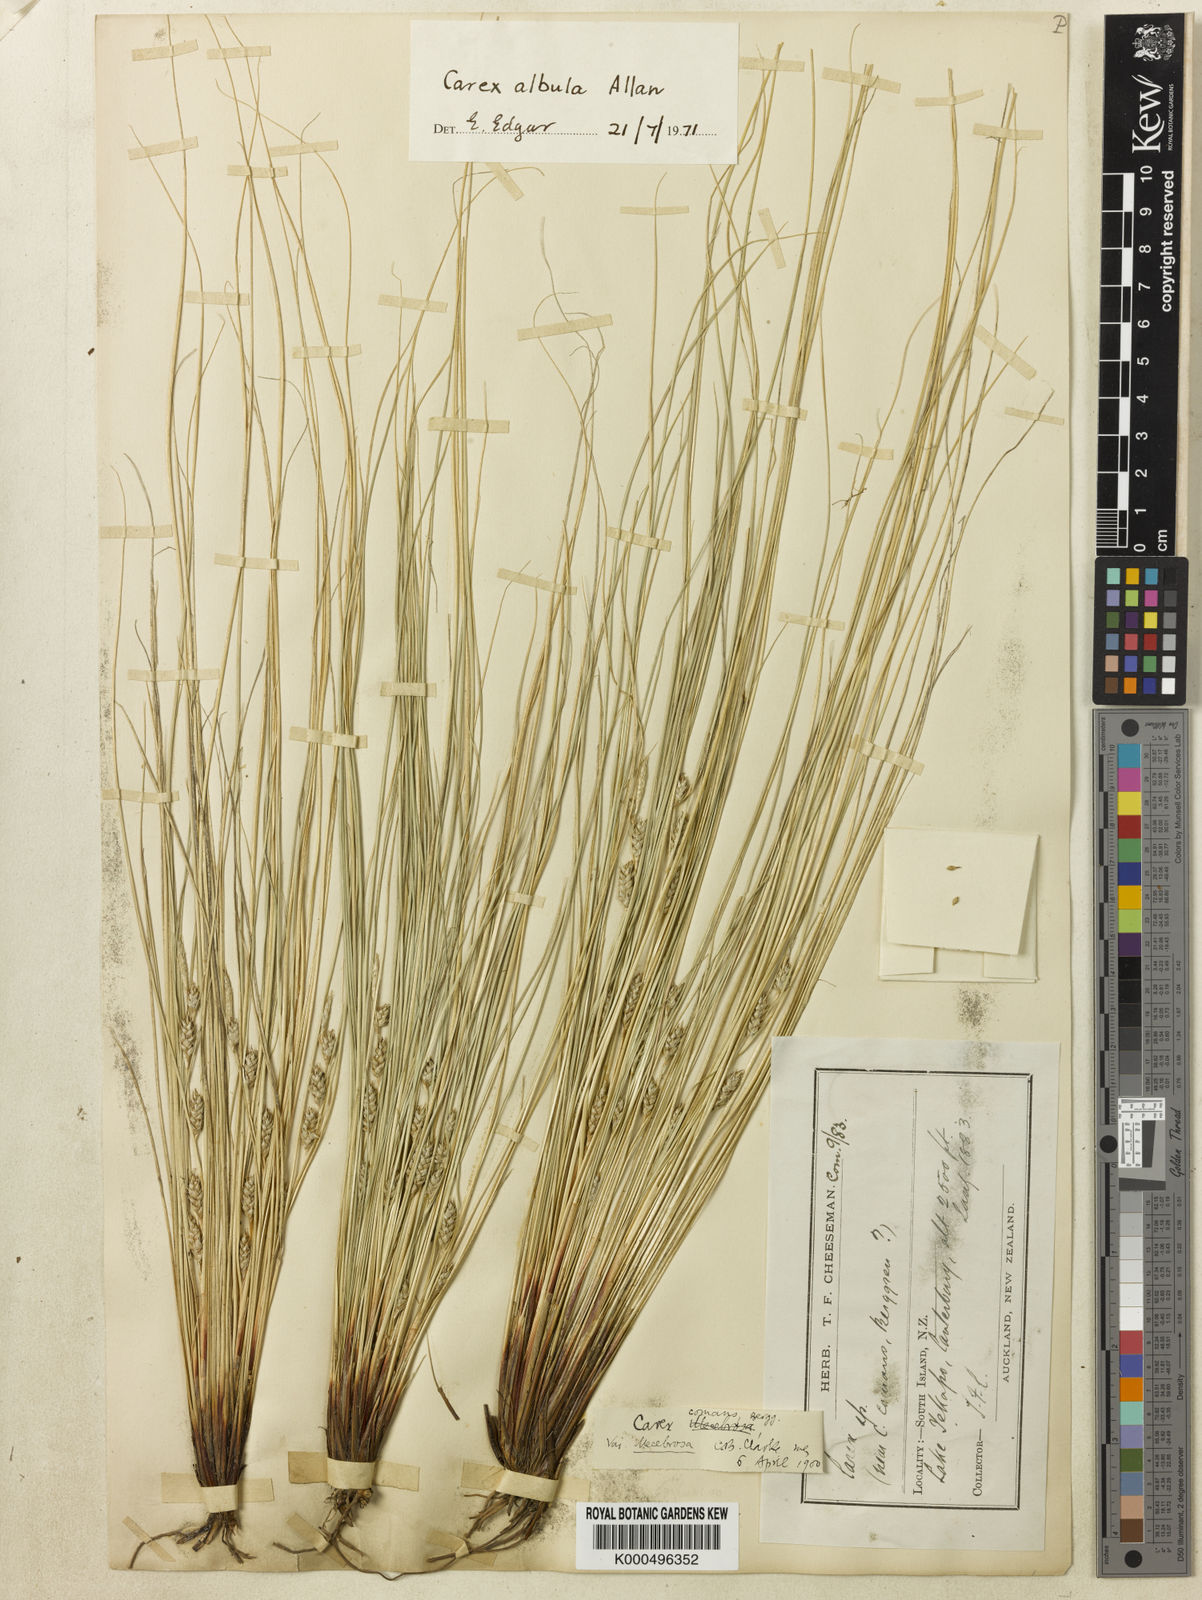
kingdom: Plantae
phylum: Tracheophyta
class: Liliopsida
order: Poales
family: Cyperaceae
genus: Carex
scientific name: Carex albula
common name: Blonde sedge
